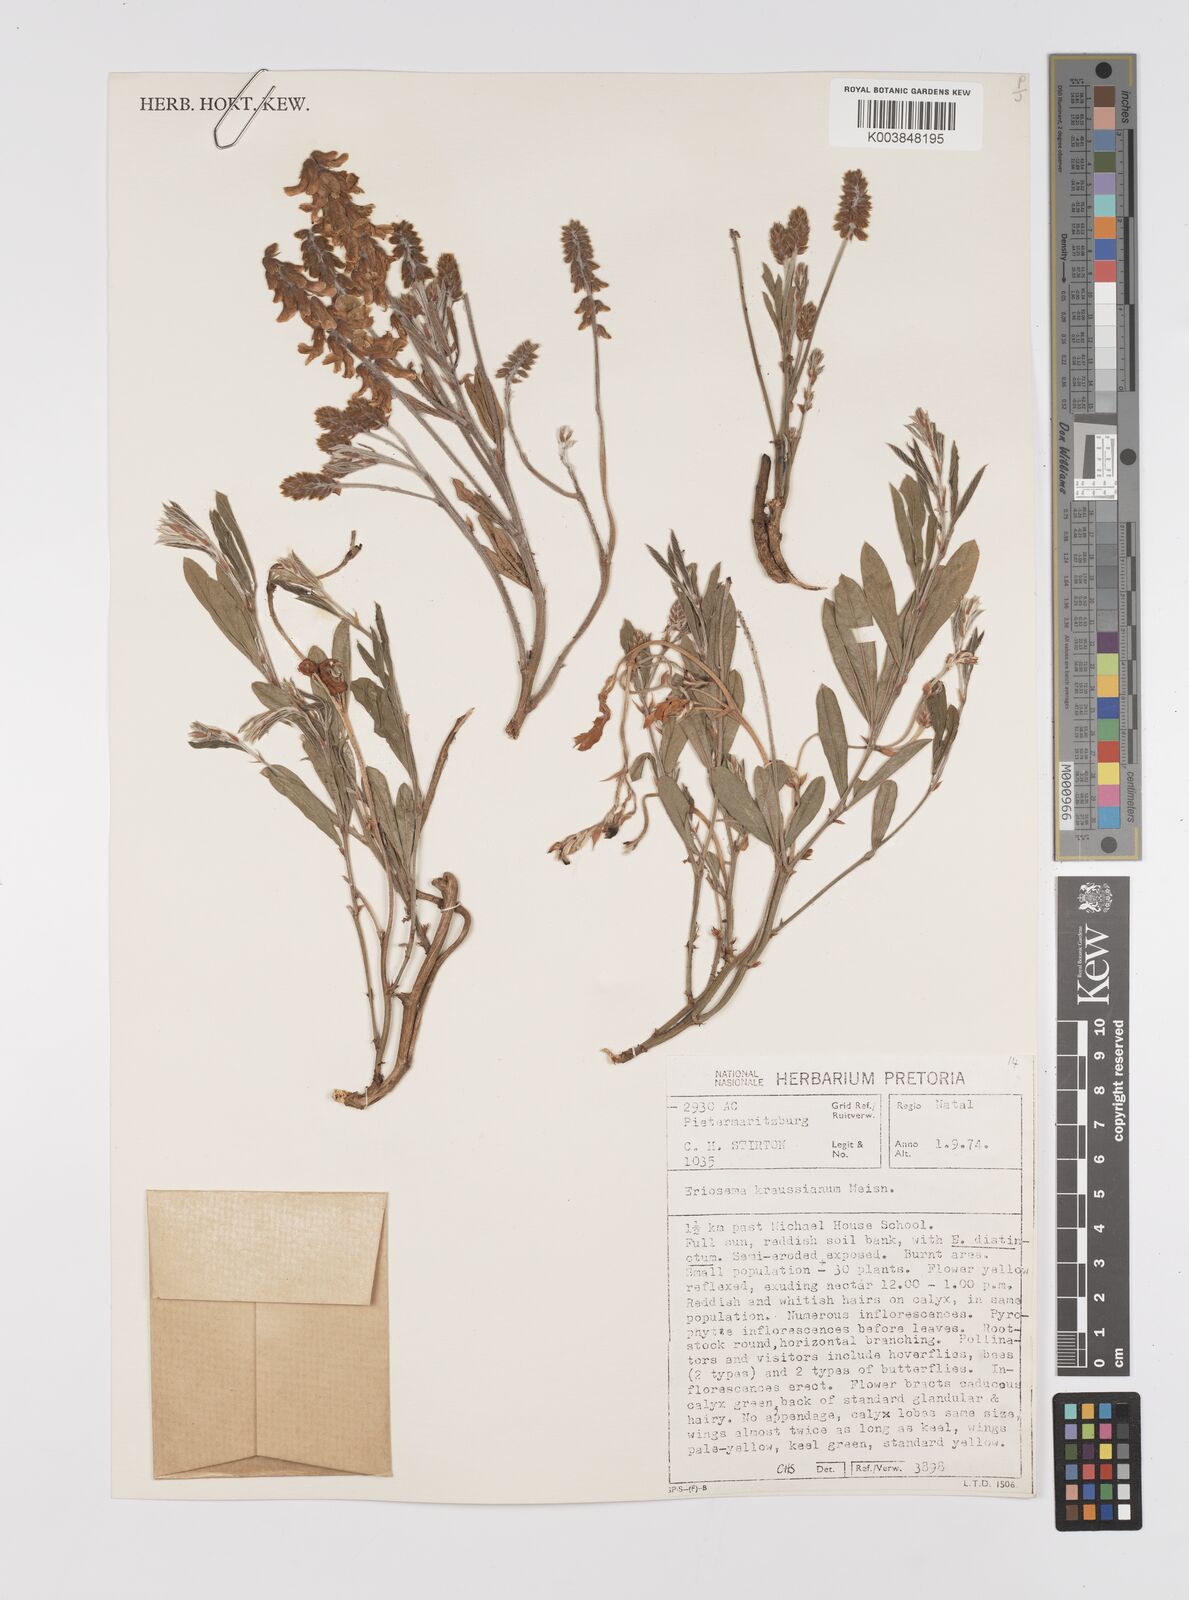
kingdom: Plantae
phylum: Tracheophyta
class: Magnoliopsida
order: Fabales
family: Fabaceae
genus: Eriosema
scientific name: Eriosema kraussianum
